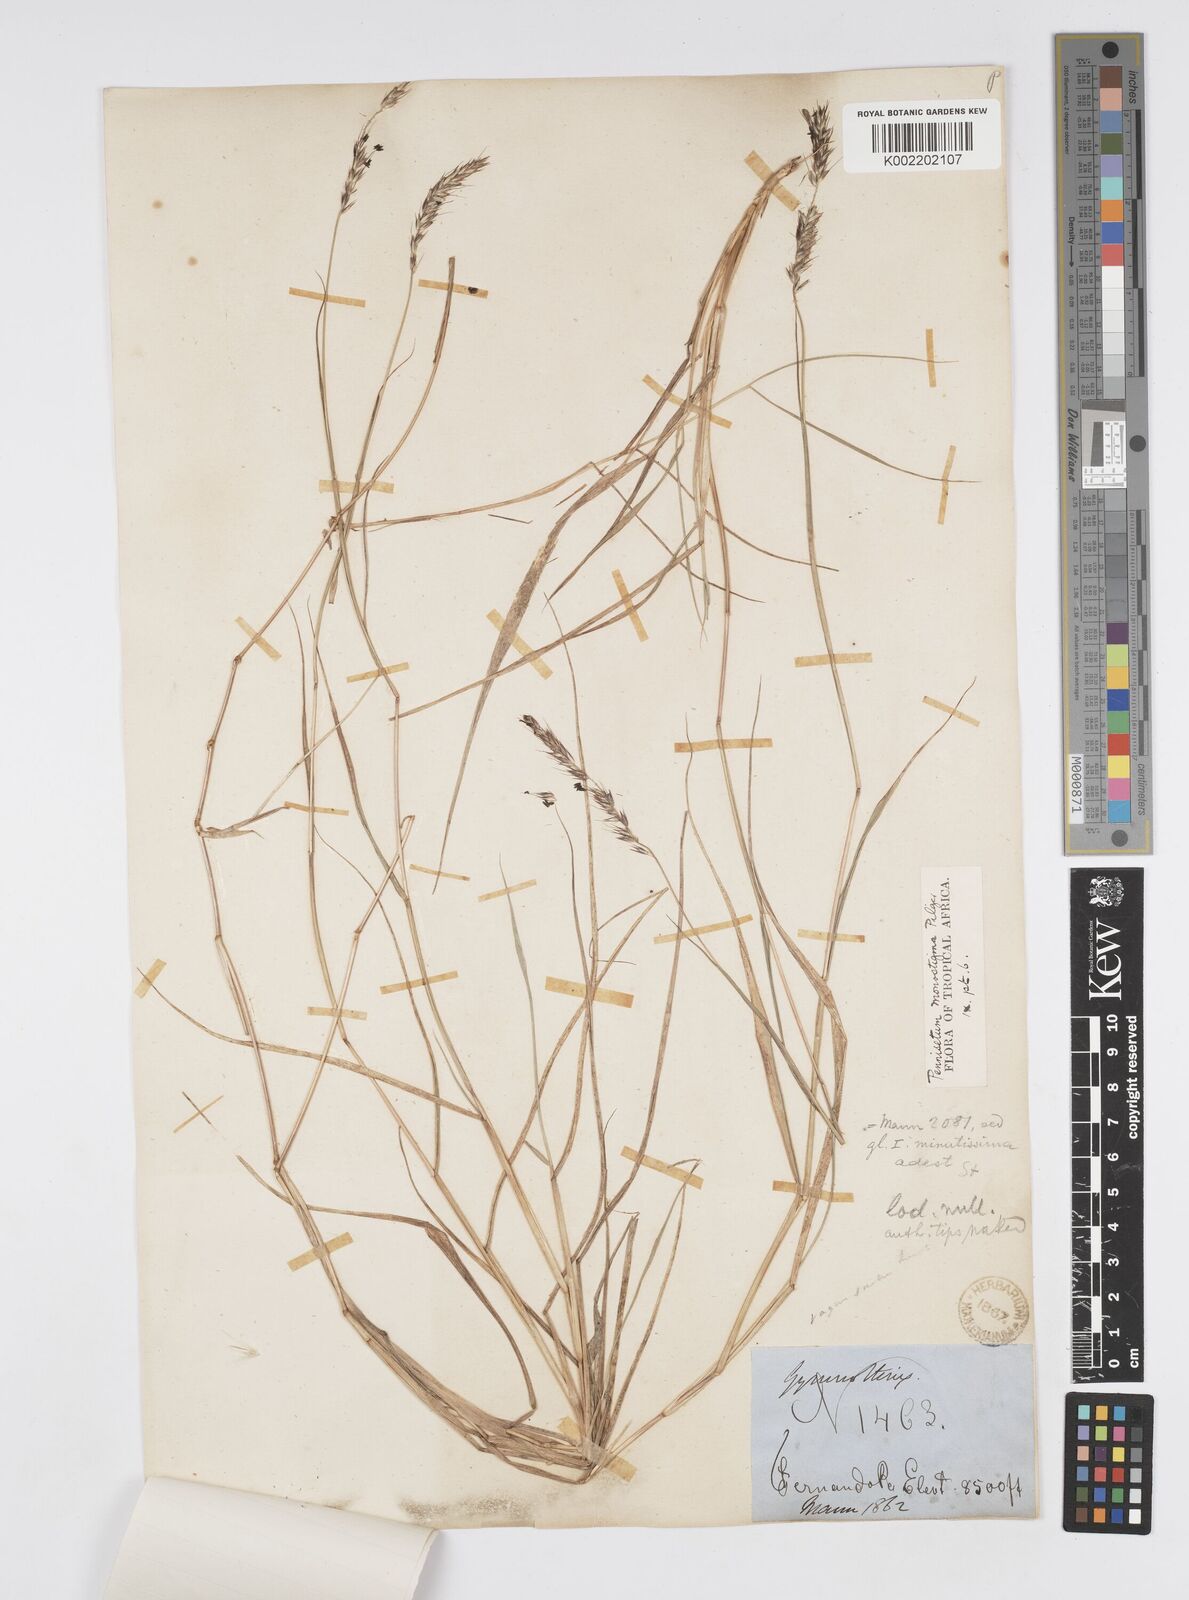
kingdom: Plantae
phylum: Tracheophyta
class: Liliopsida
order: Poales
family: Poaceae
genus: Cenchrus
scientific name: Cenchrus monostigma
